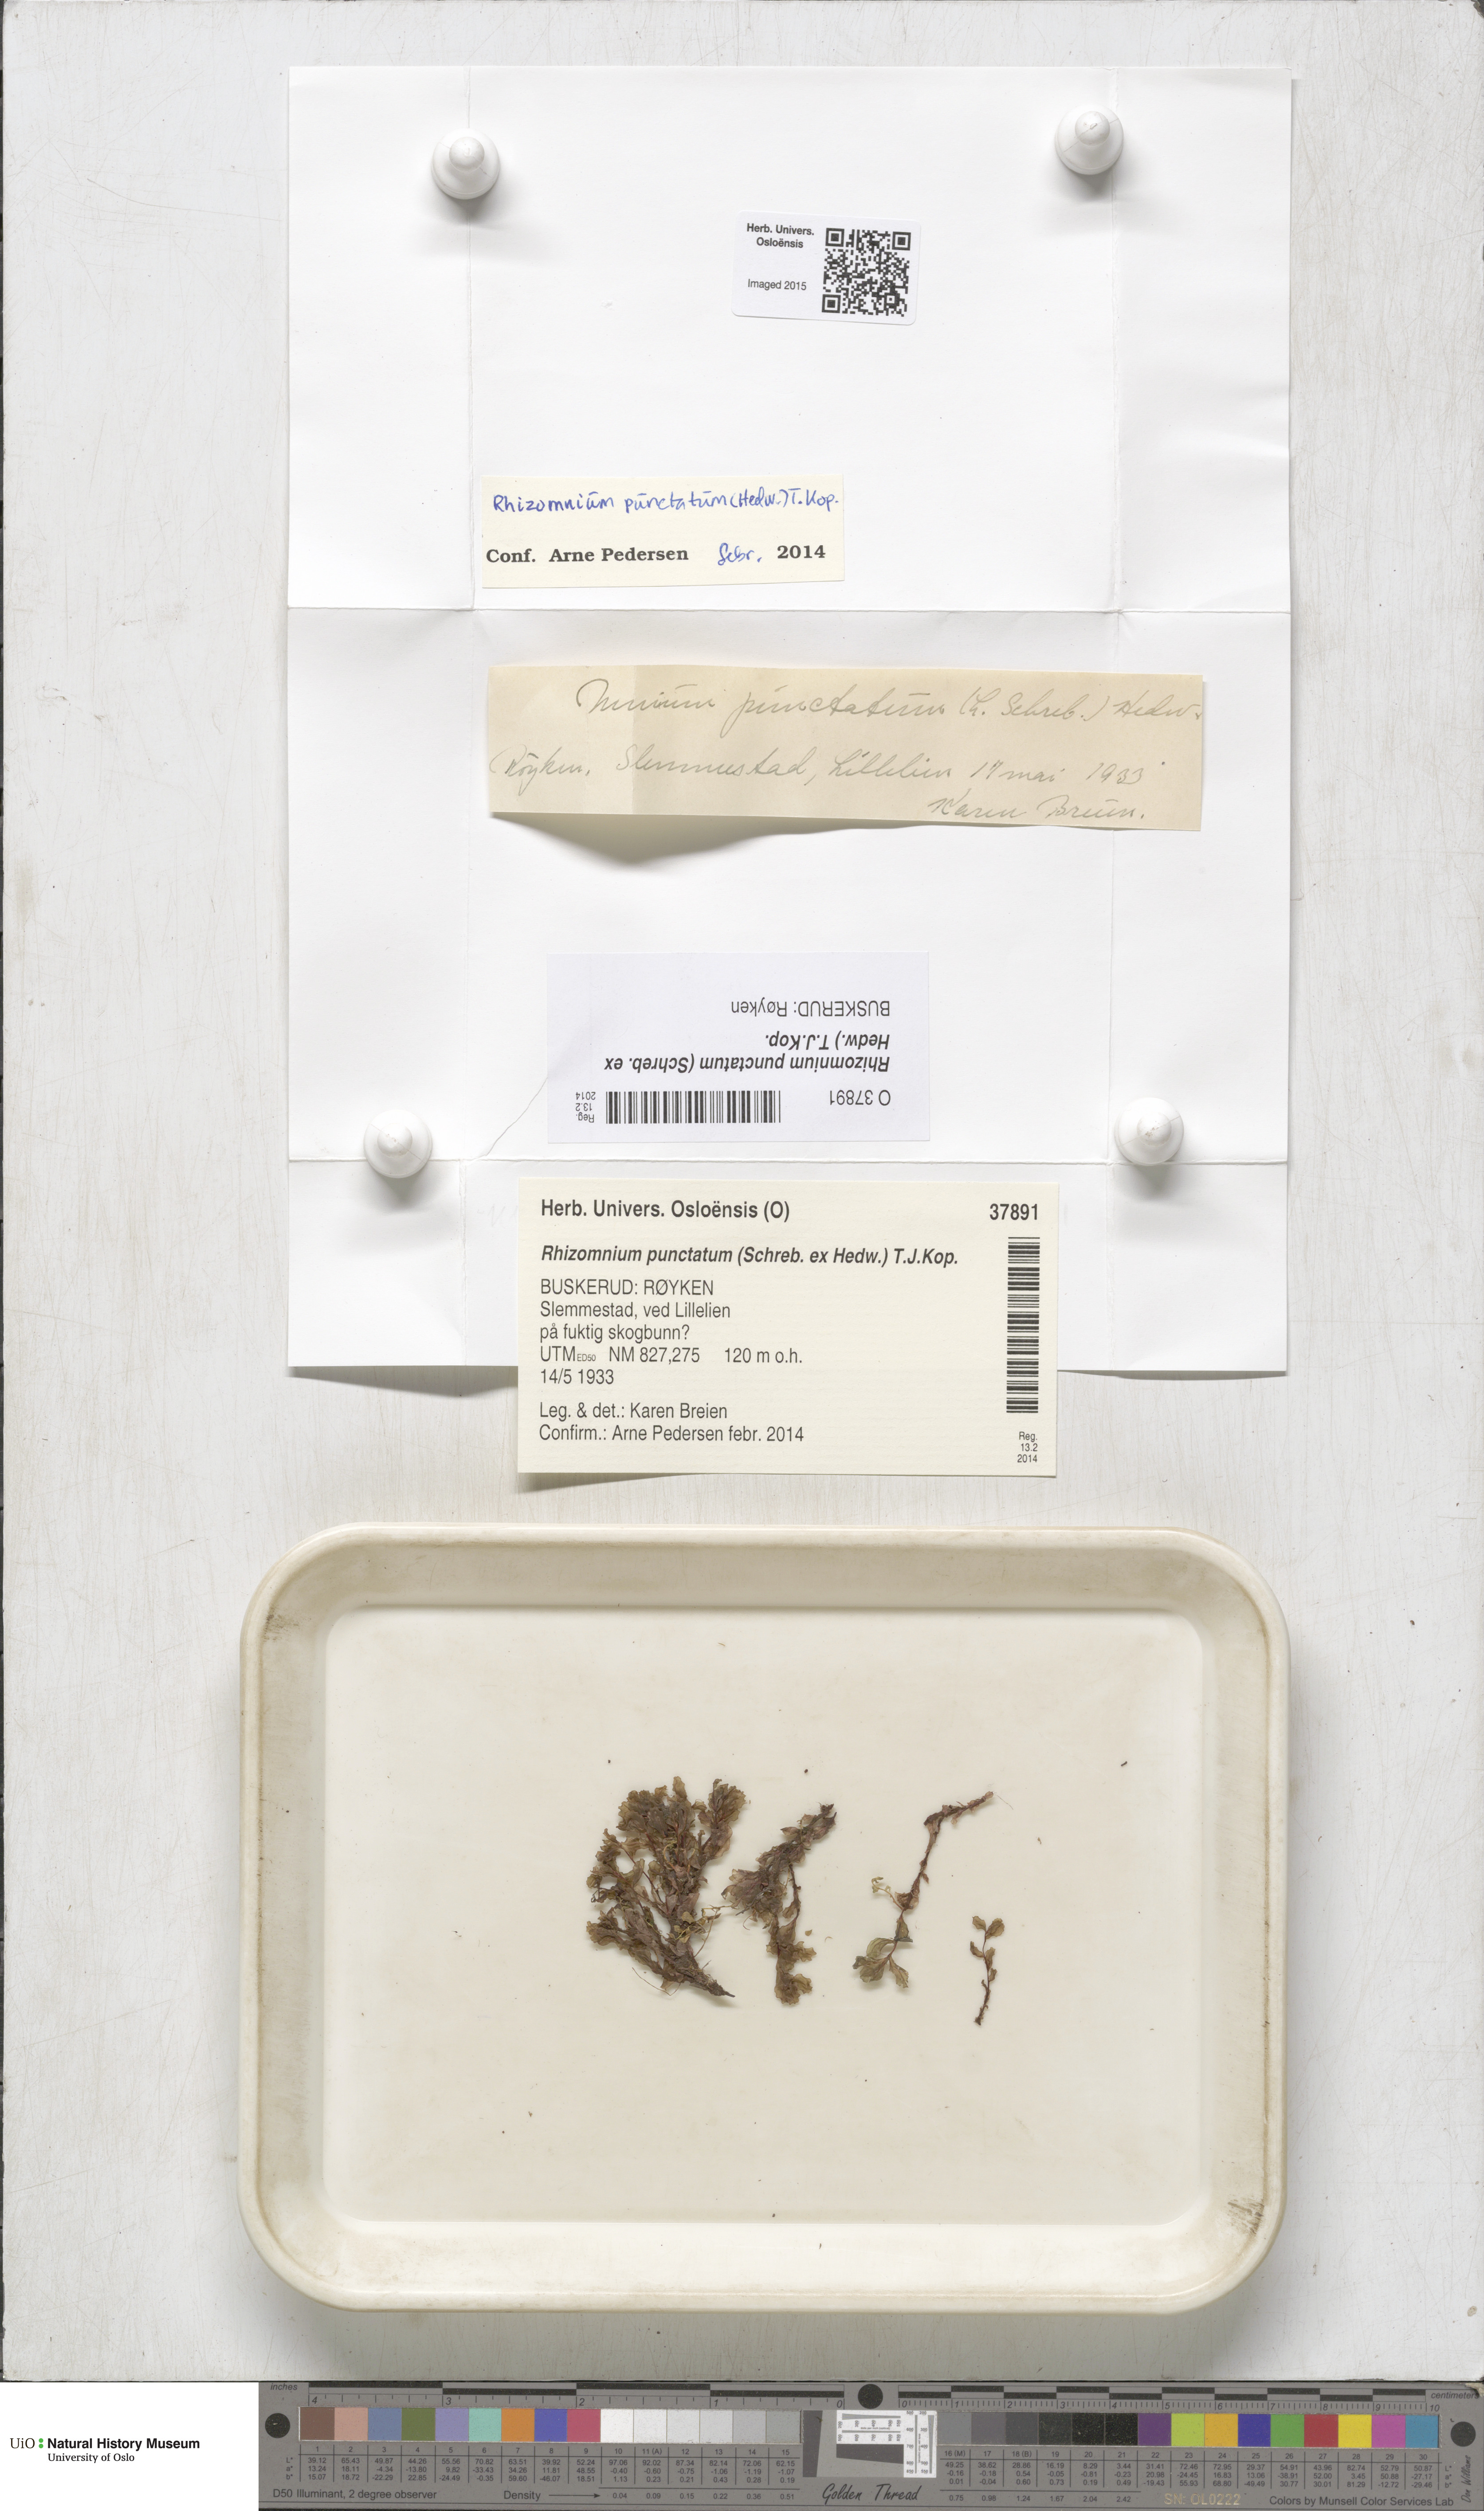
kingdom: Plantae
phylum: Bryophyta
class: Bryopsida
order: Bryales
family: Mniaceae
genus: Rhizomnium
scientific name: Rhizomnium punctatum
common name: Dotted leafy moss
